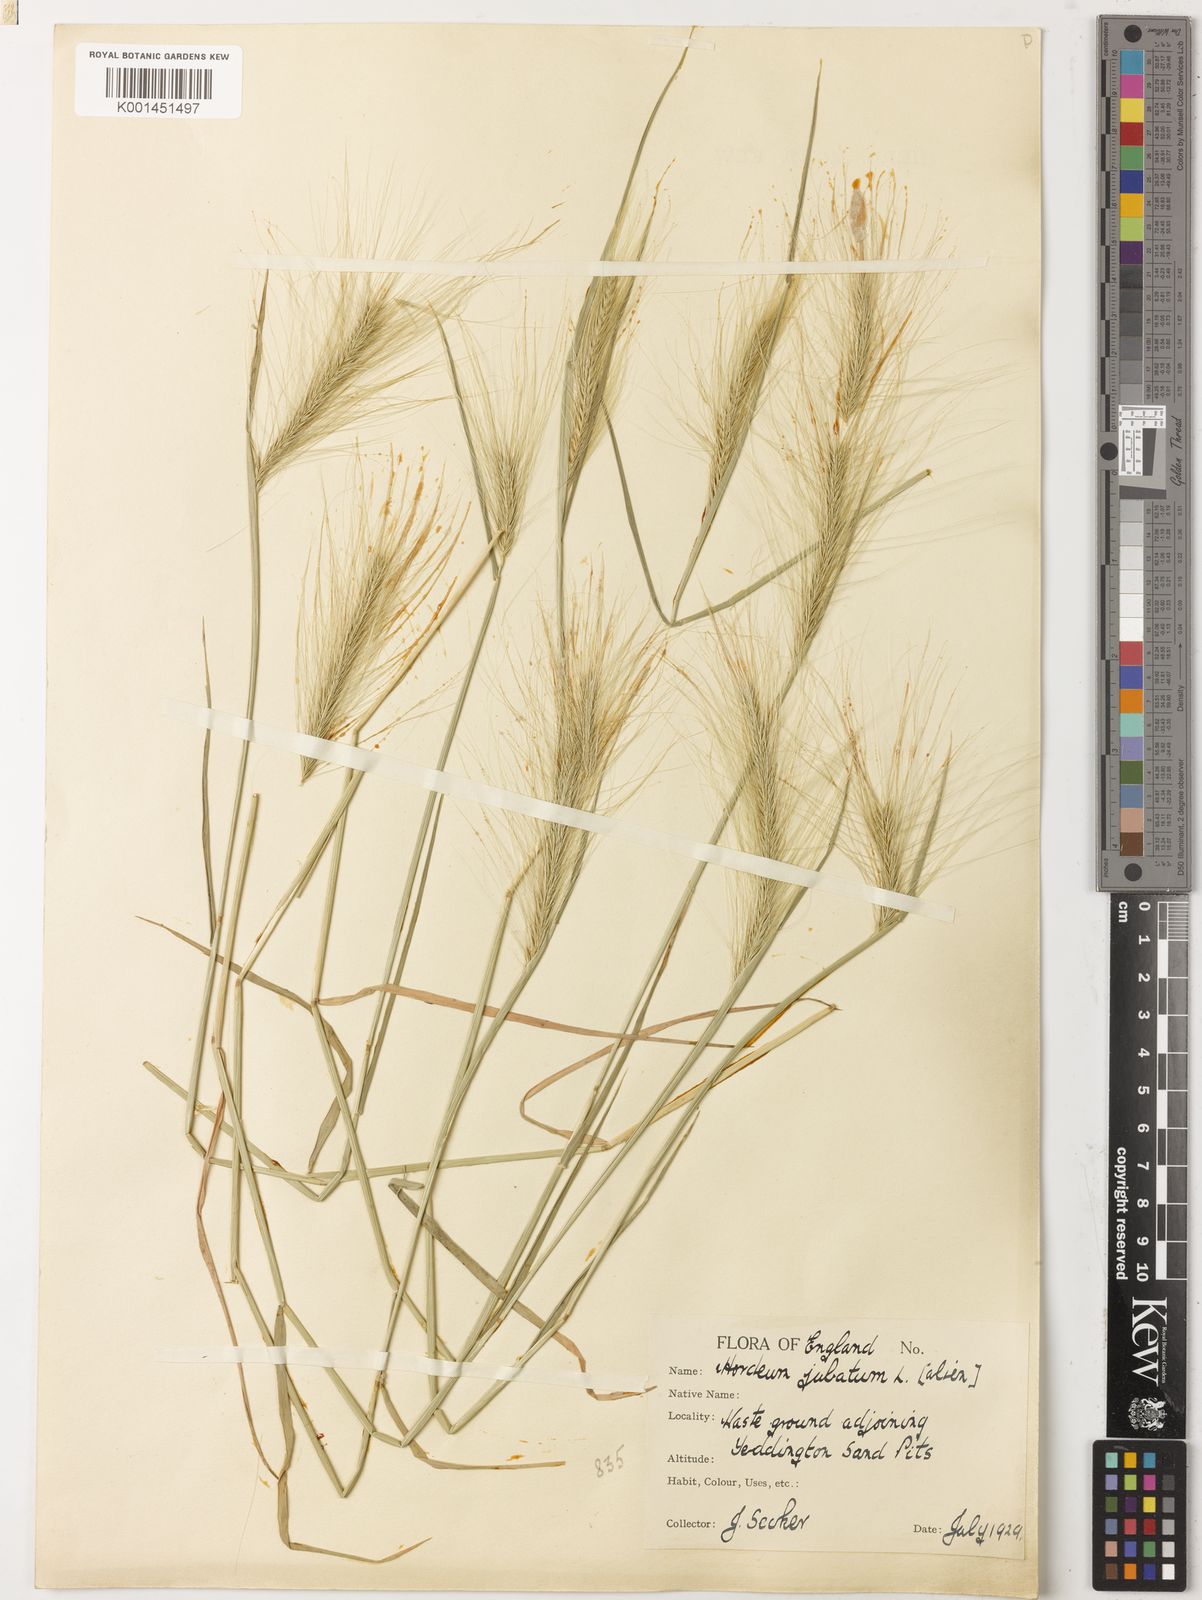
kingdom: Plantae
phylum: Tracheophyta
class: Liliopsida
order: Poales
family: Poaceae
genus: Hordeum
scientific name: Hordeum jubatum
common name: Foxtail barley
